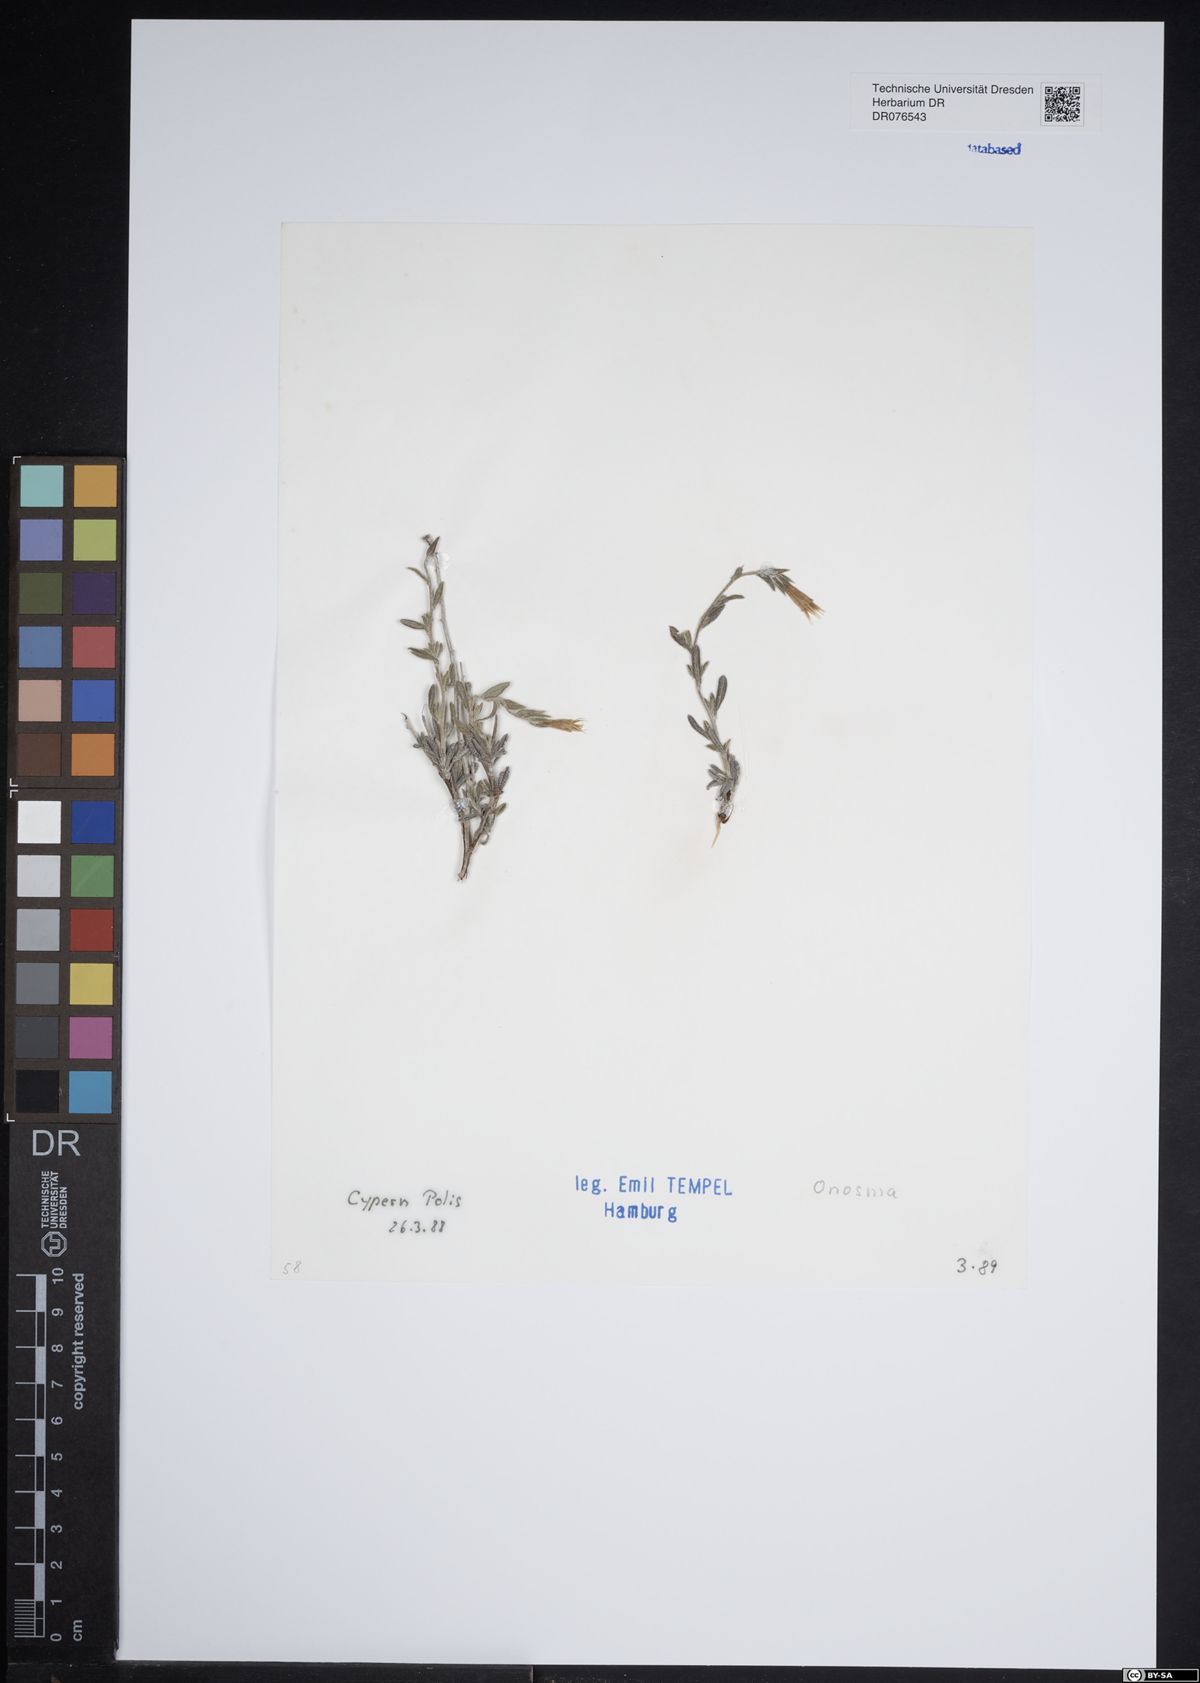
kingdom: Plantae
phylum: Tracheophyta
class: Magnoliopsida
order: Boraginales
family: Boraginaceae
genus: Onosma
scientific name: Onosma
